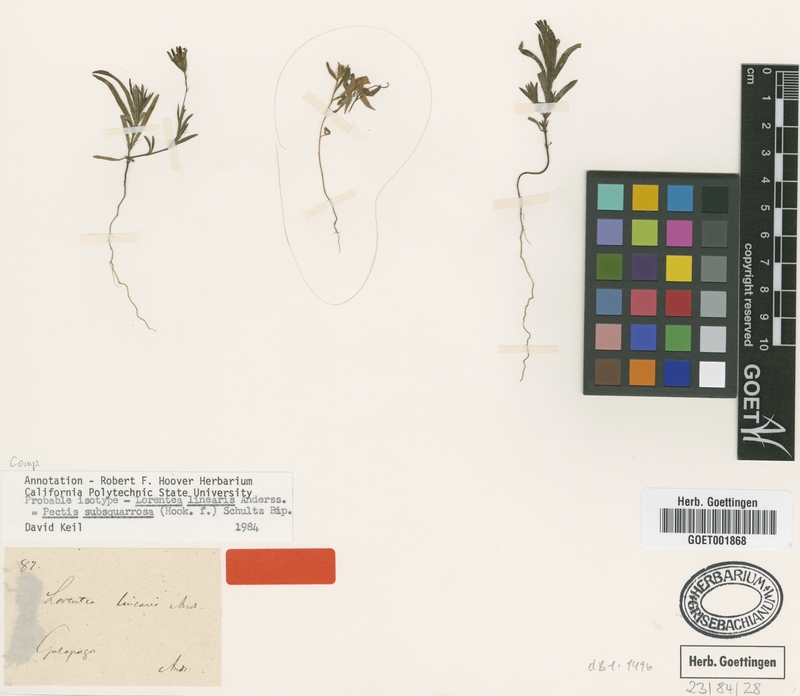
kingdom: Plantae
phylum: Tracheophyta
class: Magnoliopsida
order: Asterales
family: Asteraceae
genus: Pectis
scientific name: Pectis subsquarrosa
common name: Pectis
